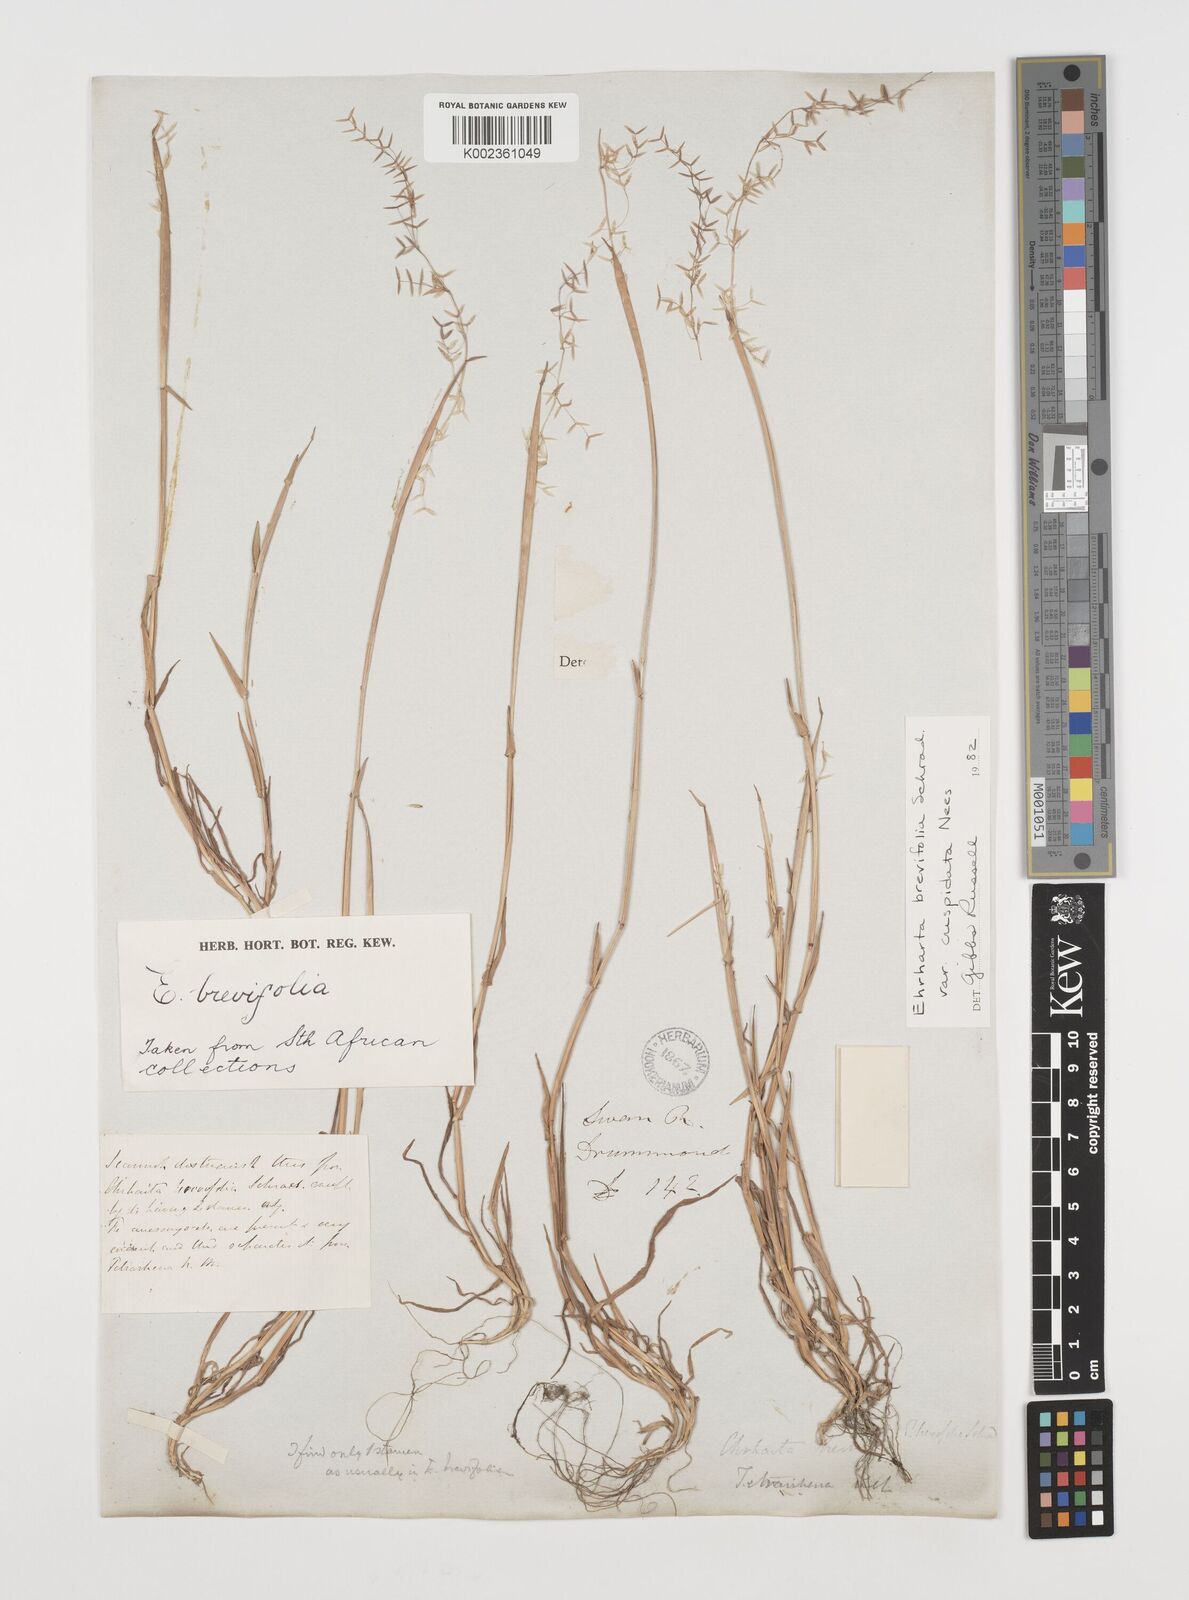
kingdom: Plantae
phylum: Tracheophyta
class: Liliopsida
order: Poales
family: Poaceae
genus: Ehrharta
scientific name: Ehrharta brevifolia
